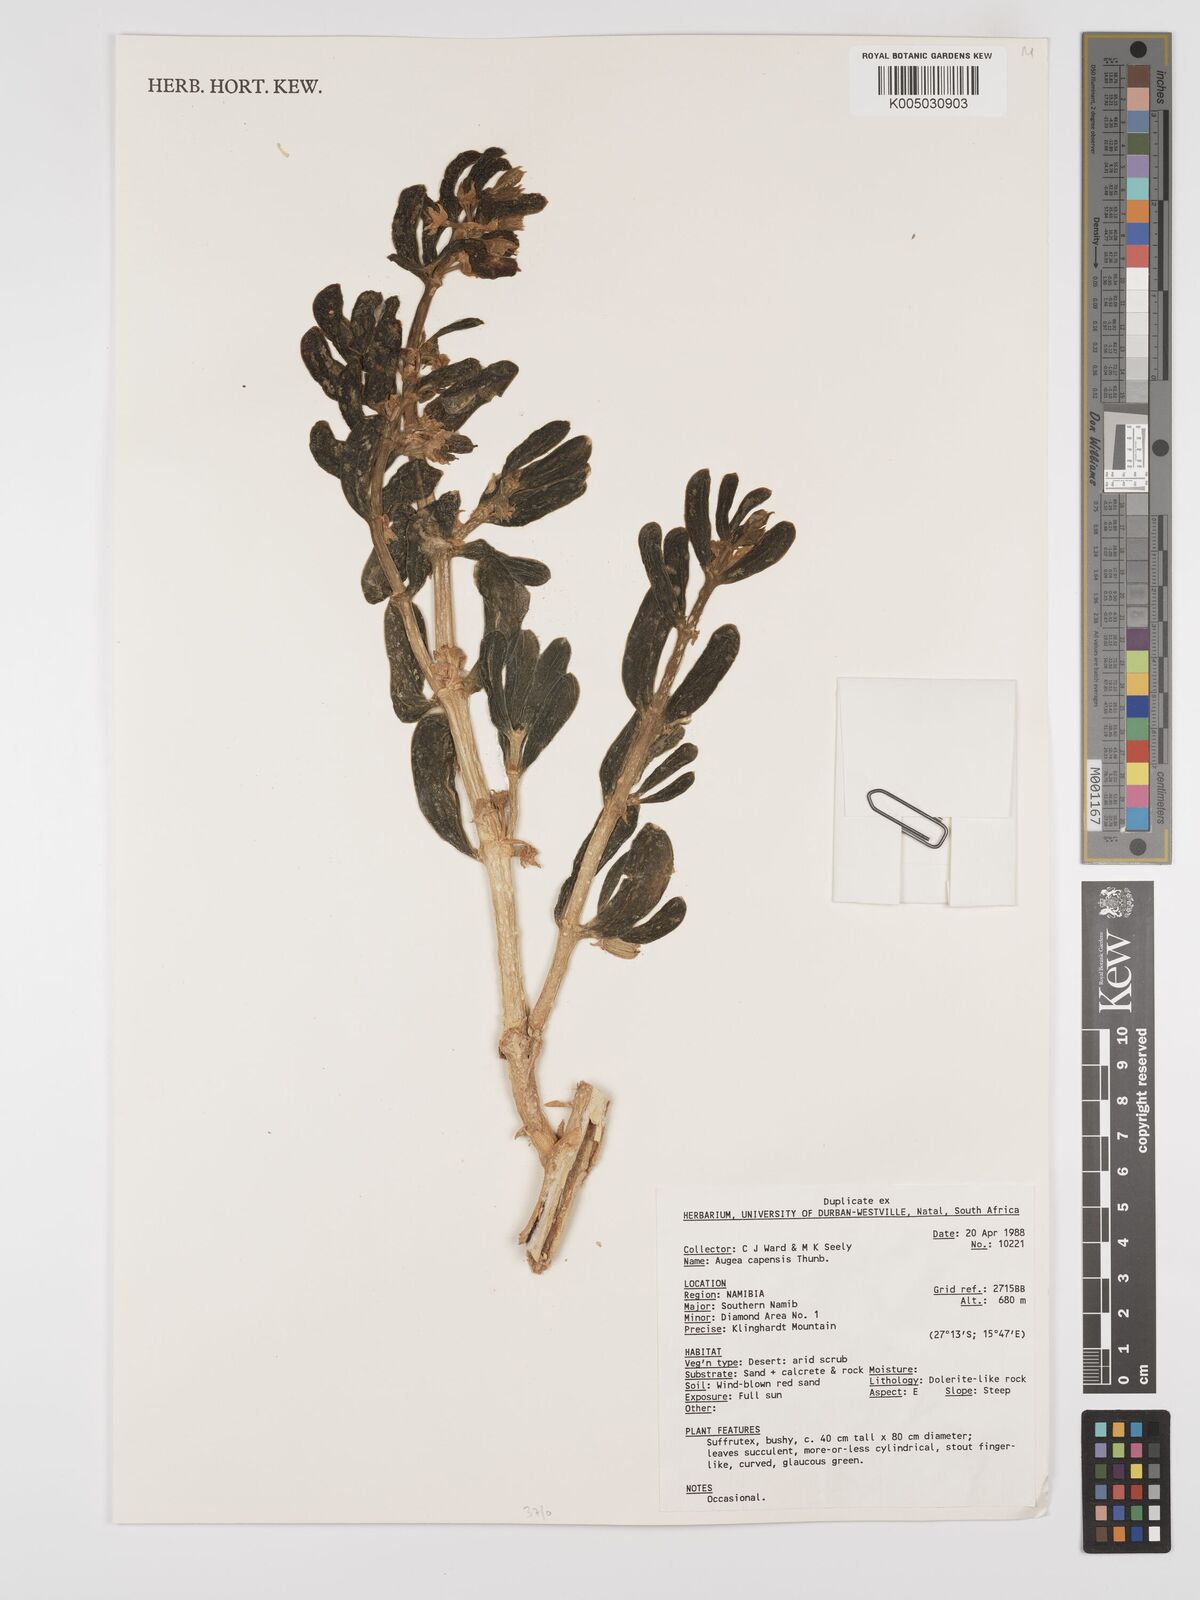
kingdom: Plantae
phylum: Tracheophyta
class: Magnoliopsida
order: Zygophyllales
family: Zygophyllaceae
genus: Augea
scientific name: Augea capensis
